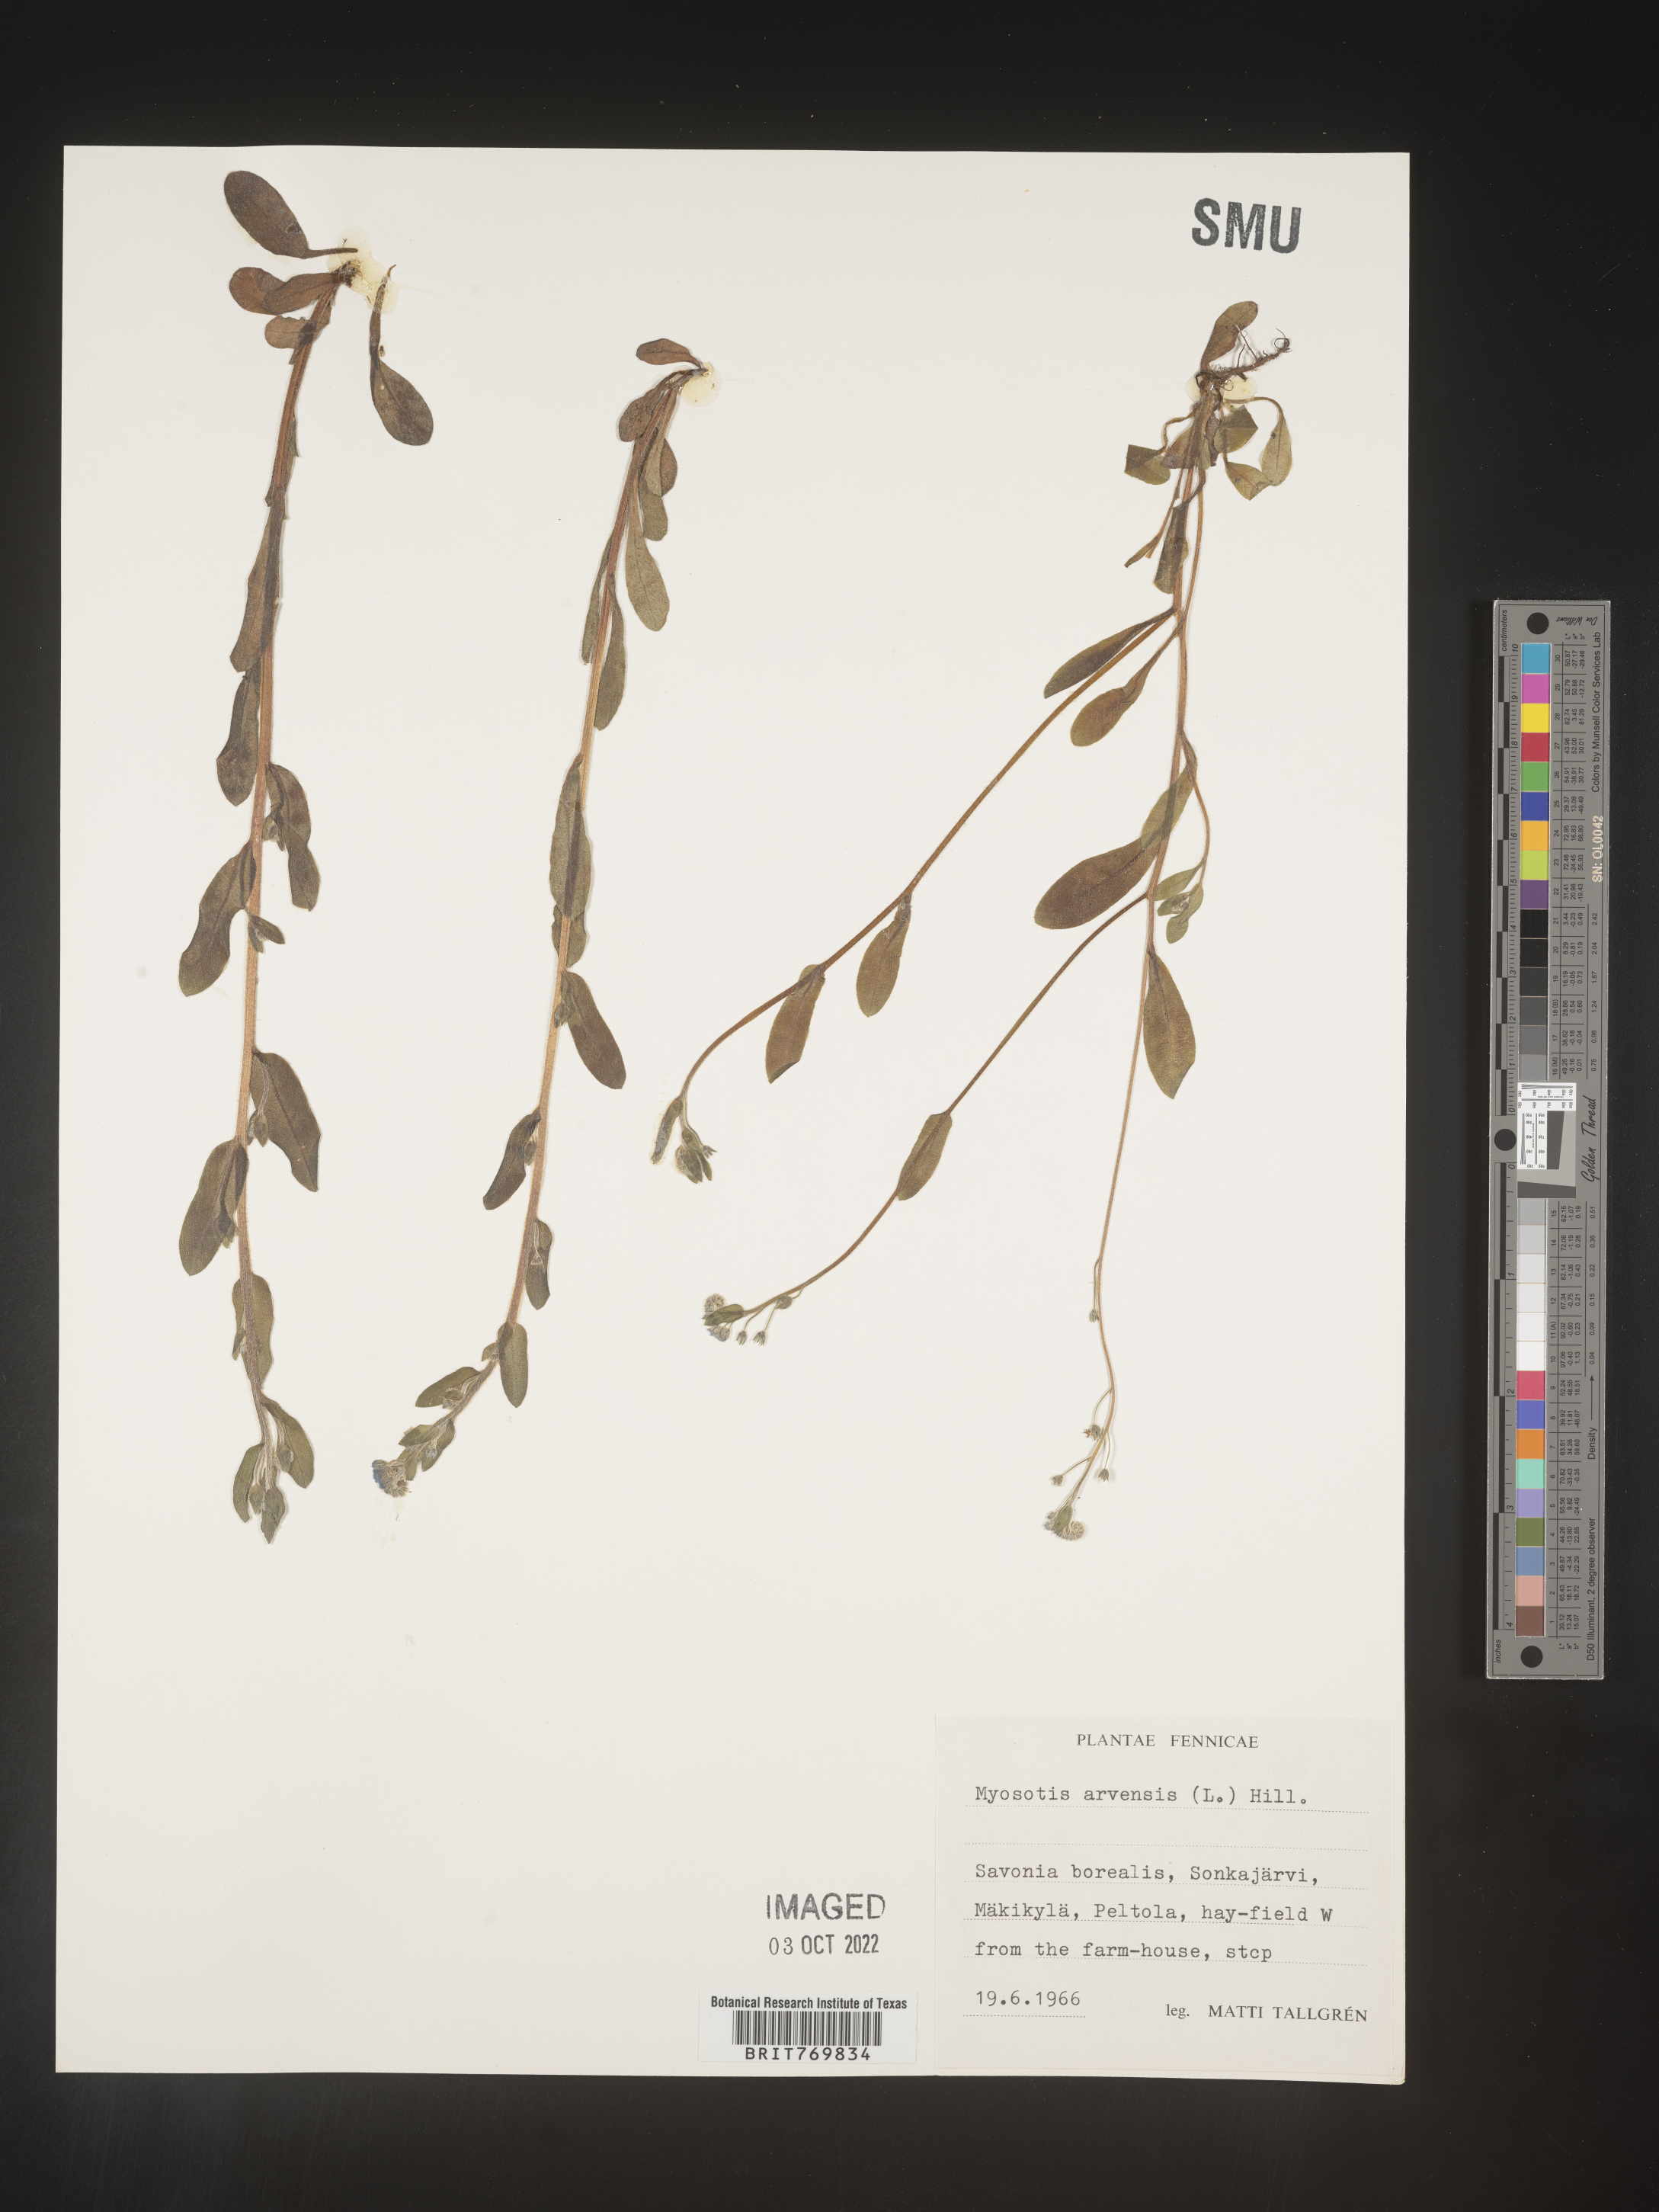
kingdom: Plantae
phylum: Tracheophyta
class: Magnoliopsida
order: Boraginales
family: Boraginaceae
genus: Myosotis
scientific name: Myosotis
